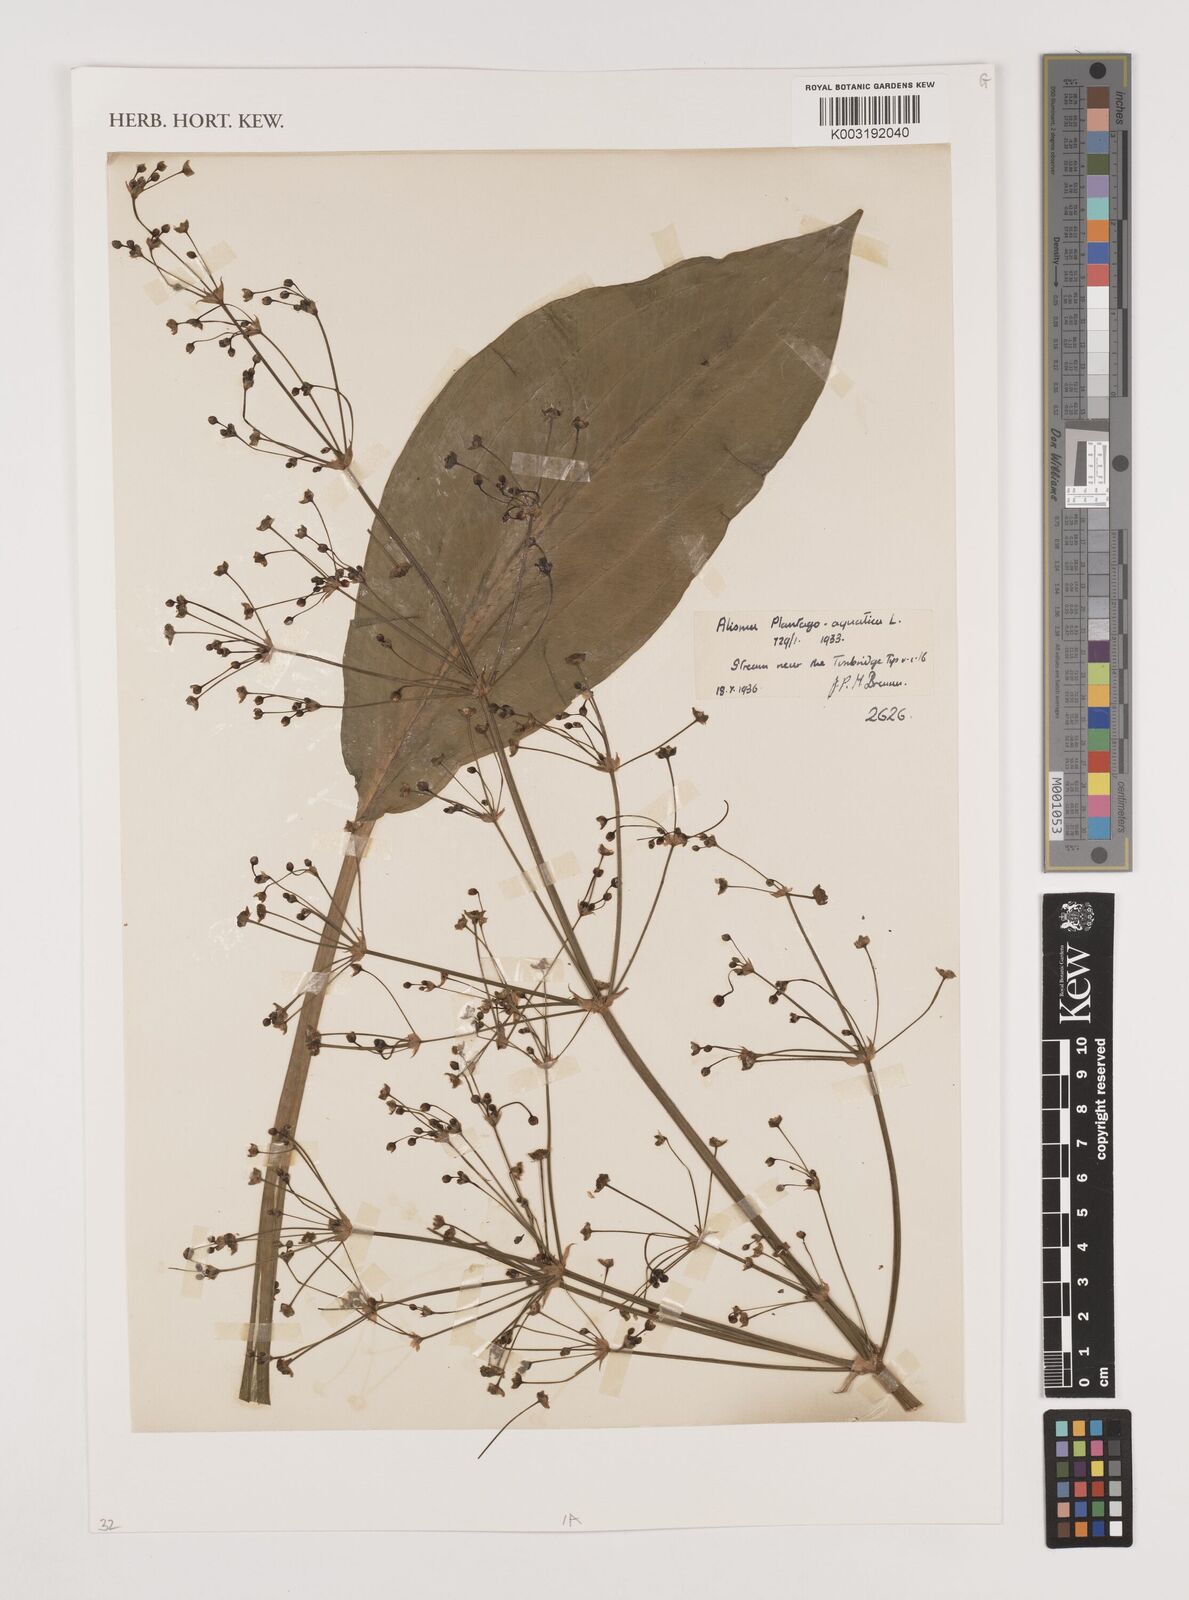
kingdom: Plantae
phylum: Tracheophyta
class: Liliopsida
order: Alismatales
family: Alismataceae
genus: Alisma
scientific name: Alisma plantago-aquatica
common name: Water-plantain
